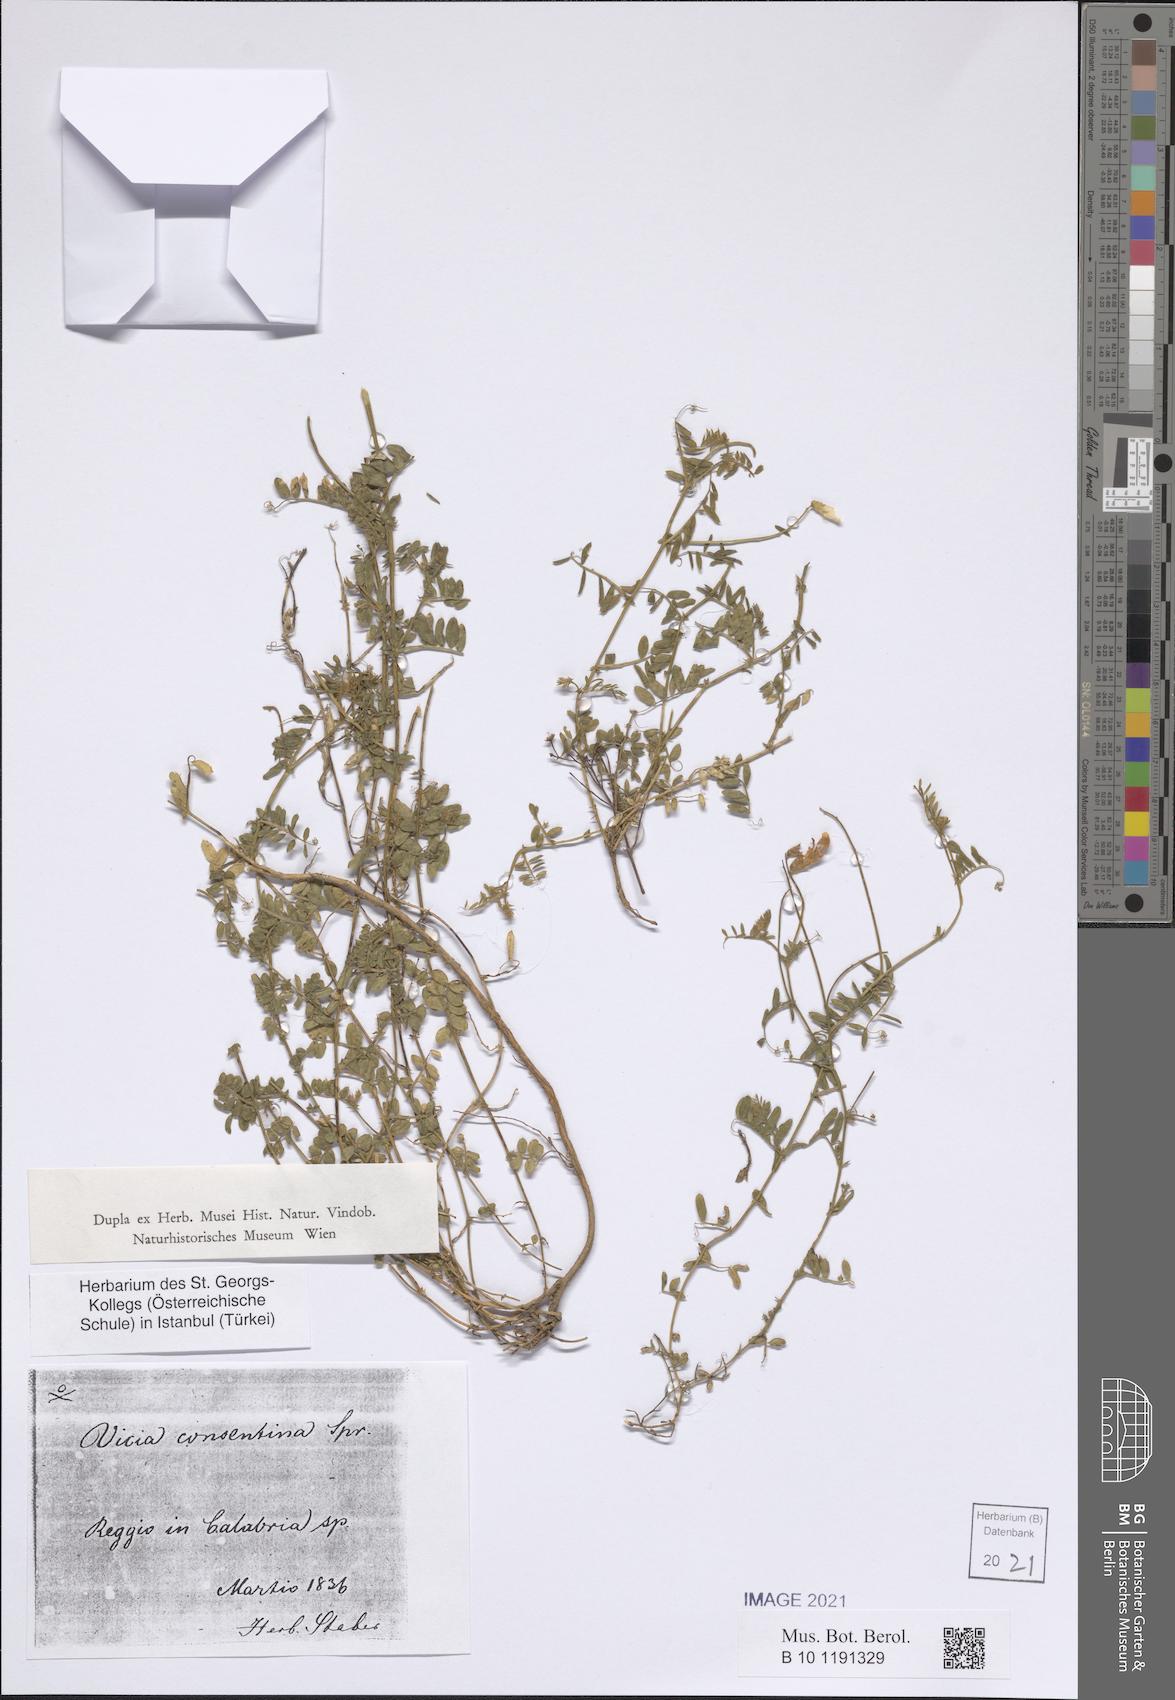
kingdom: Plantae
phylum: Tracheophyta
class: Magnoliopsida
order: Fabales
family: Fabaceae
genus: Vicia
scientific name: Vicia variegata
